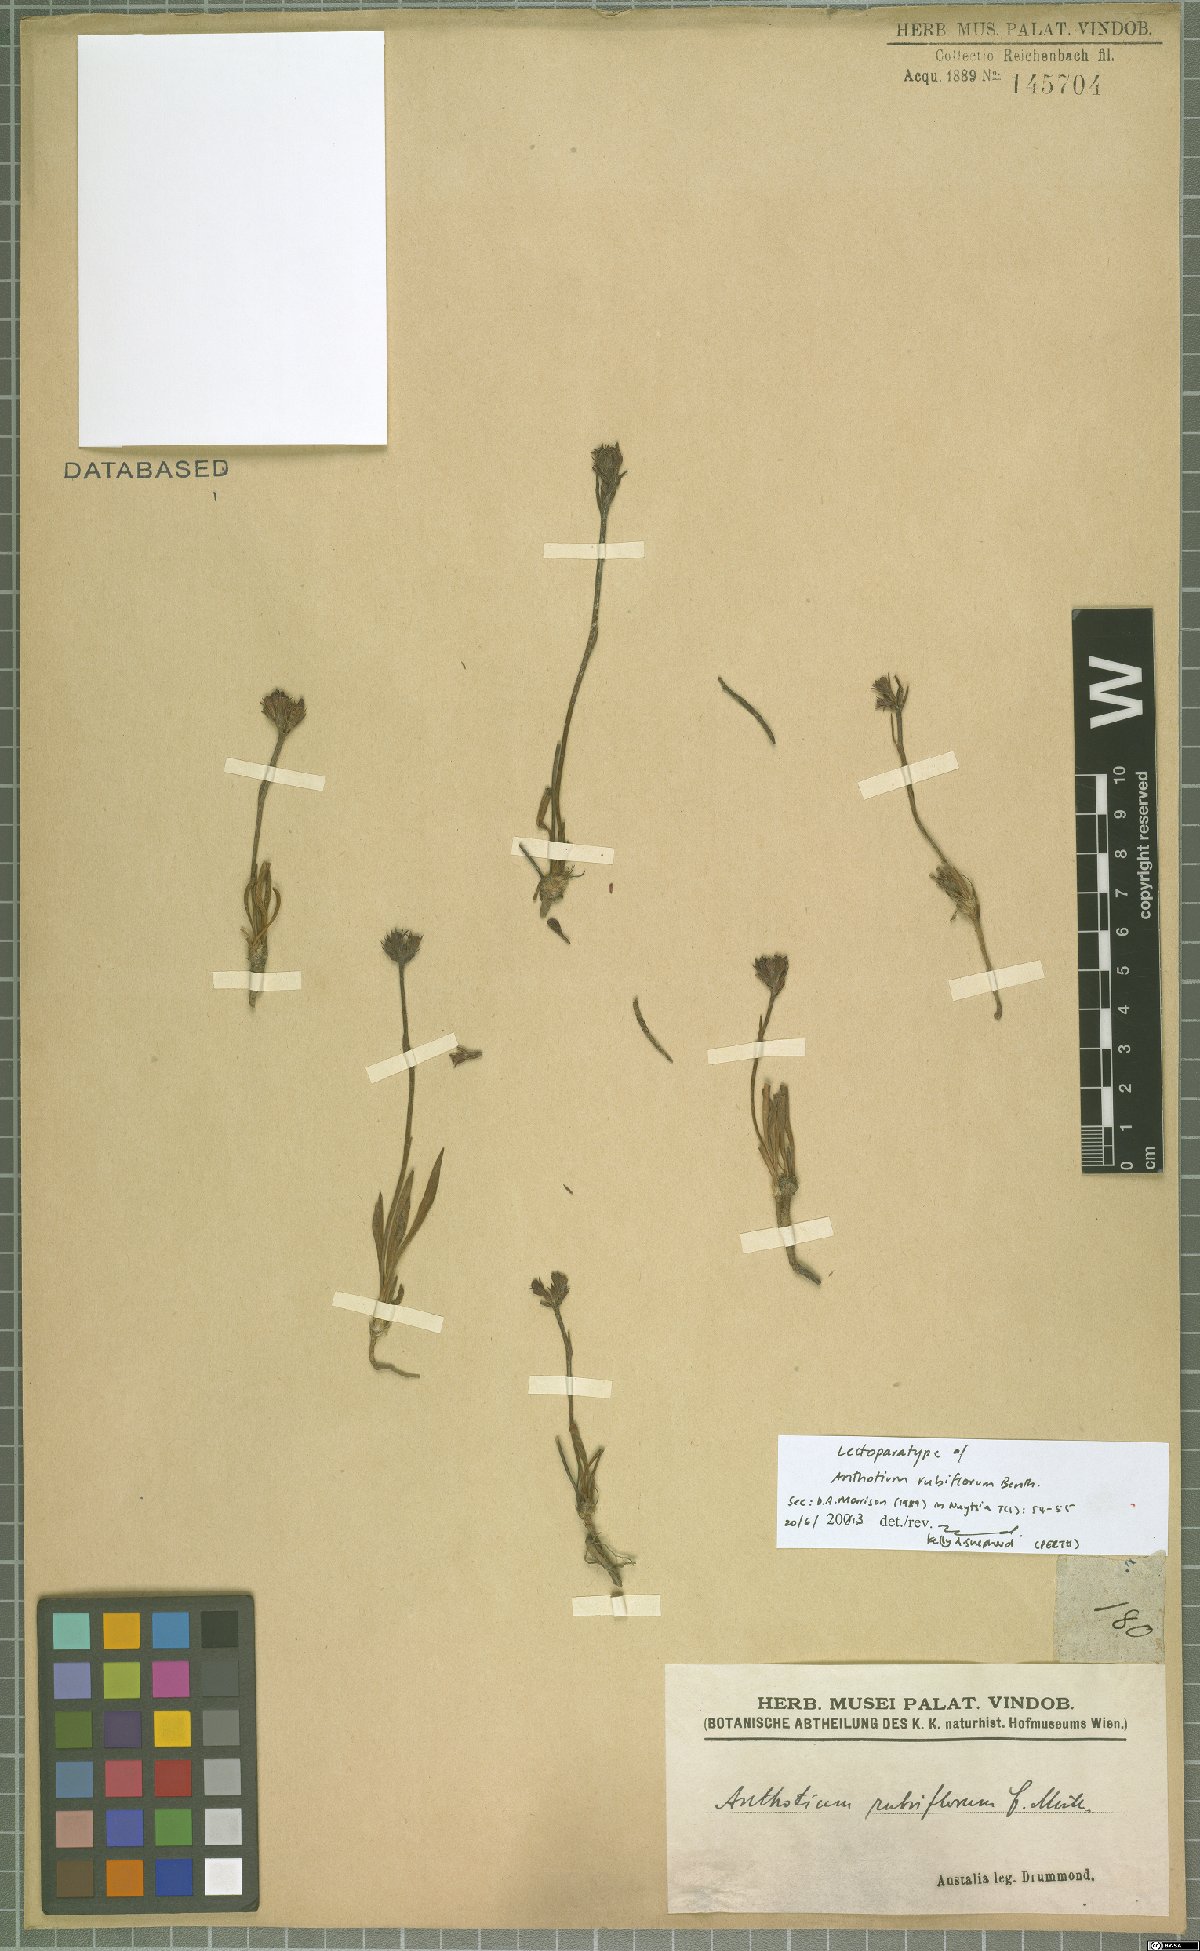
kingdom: Plantae
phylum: Tracheophyta
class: Magnoliopsida
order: Asterales
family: Goodeniaceae
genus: Anthotium
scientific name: Anthotium rubriflorum
